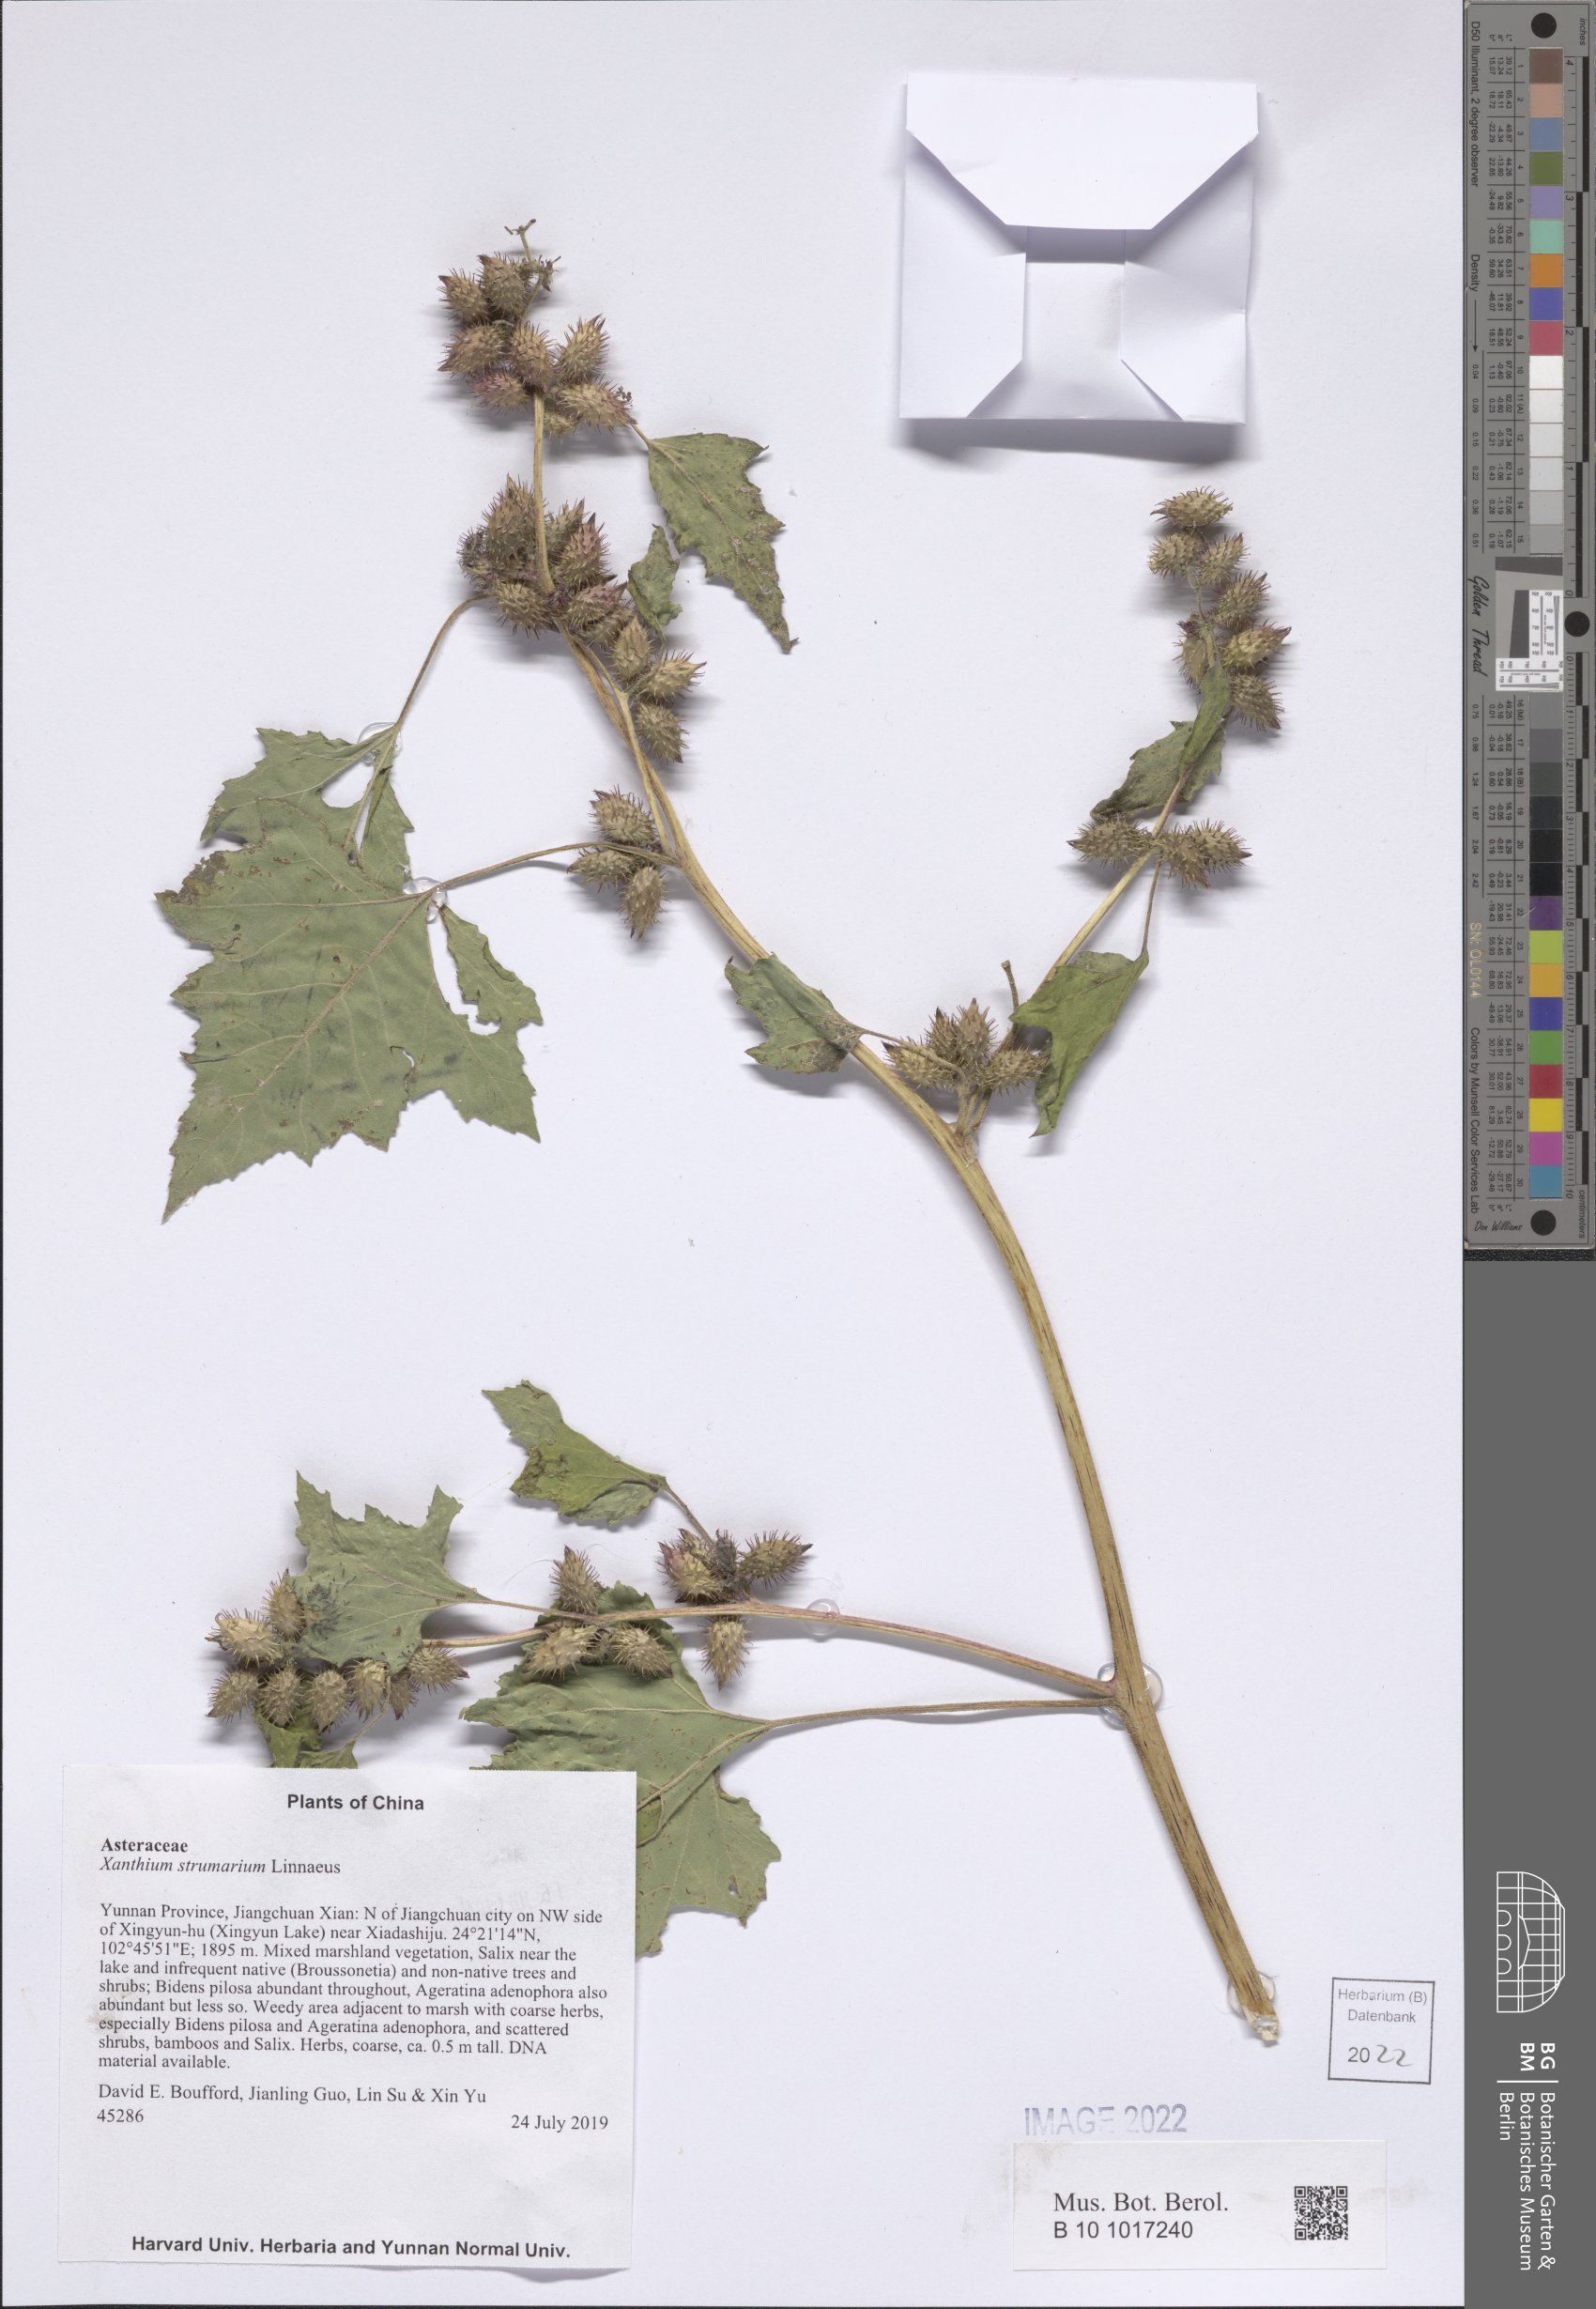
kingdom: Plantae
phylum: Tracheophyta
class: Magnoliopsida
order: Asterales
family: Asteraceae
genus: Xanthium
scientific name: Xanthium strumarium
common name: Rough cocklebur
